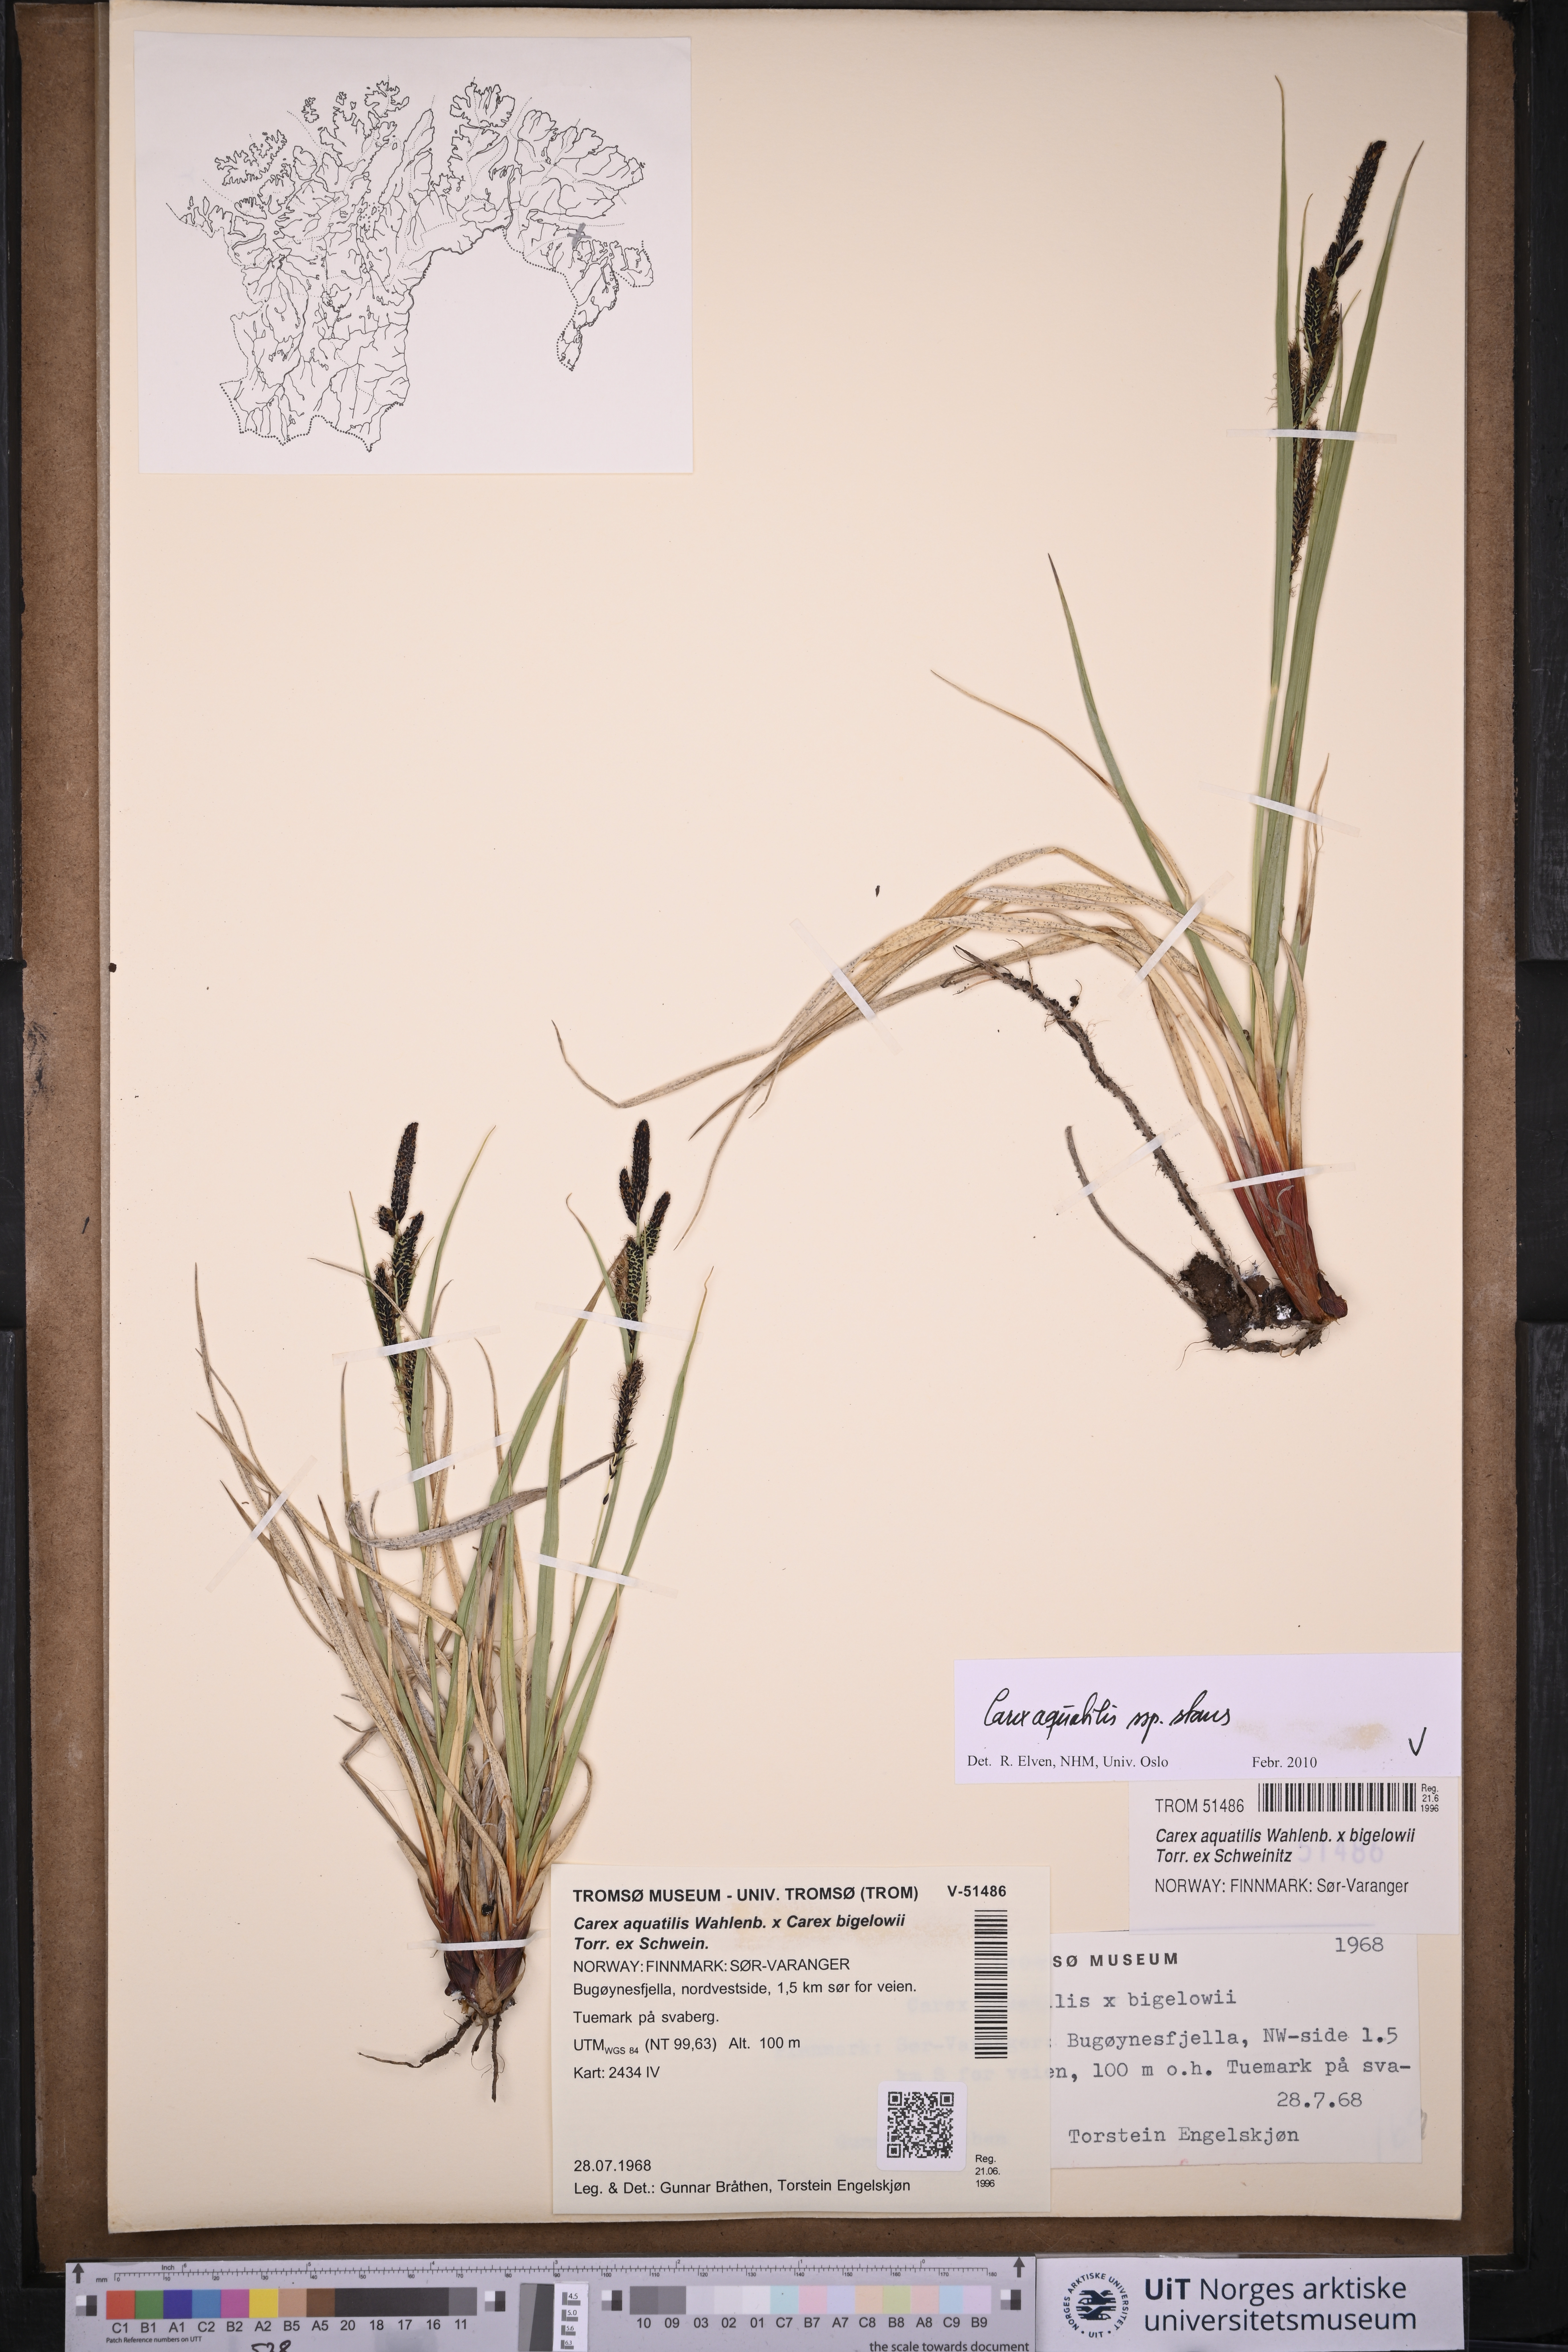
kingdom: Plantae
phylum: Tracheophyta
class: Liliopsida
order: Poales
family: Cyperaceae
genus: Carex
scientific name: Carex aquatilis
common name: Water sedge
